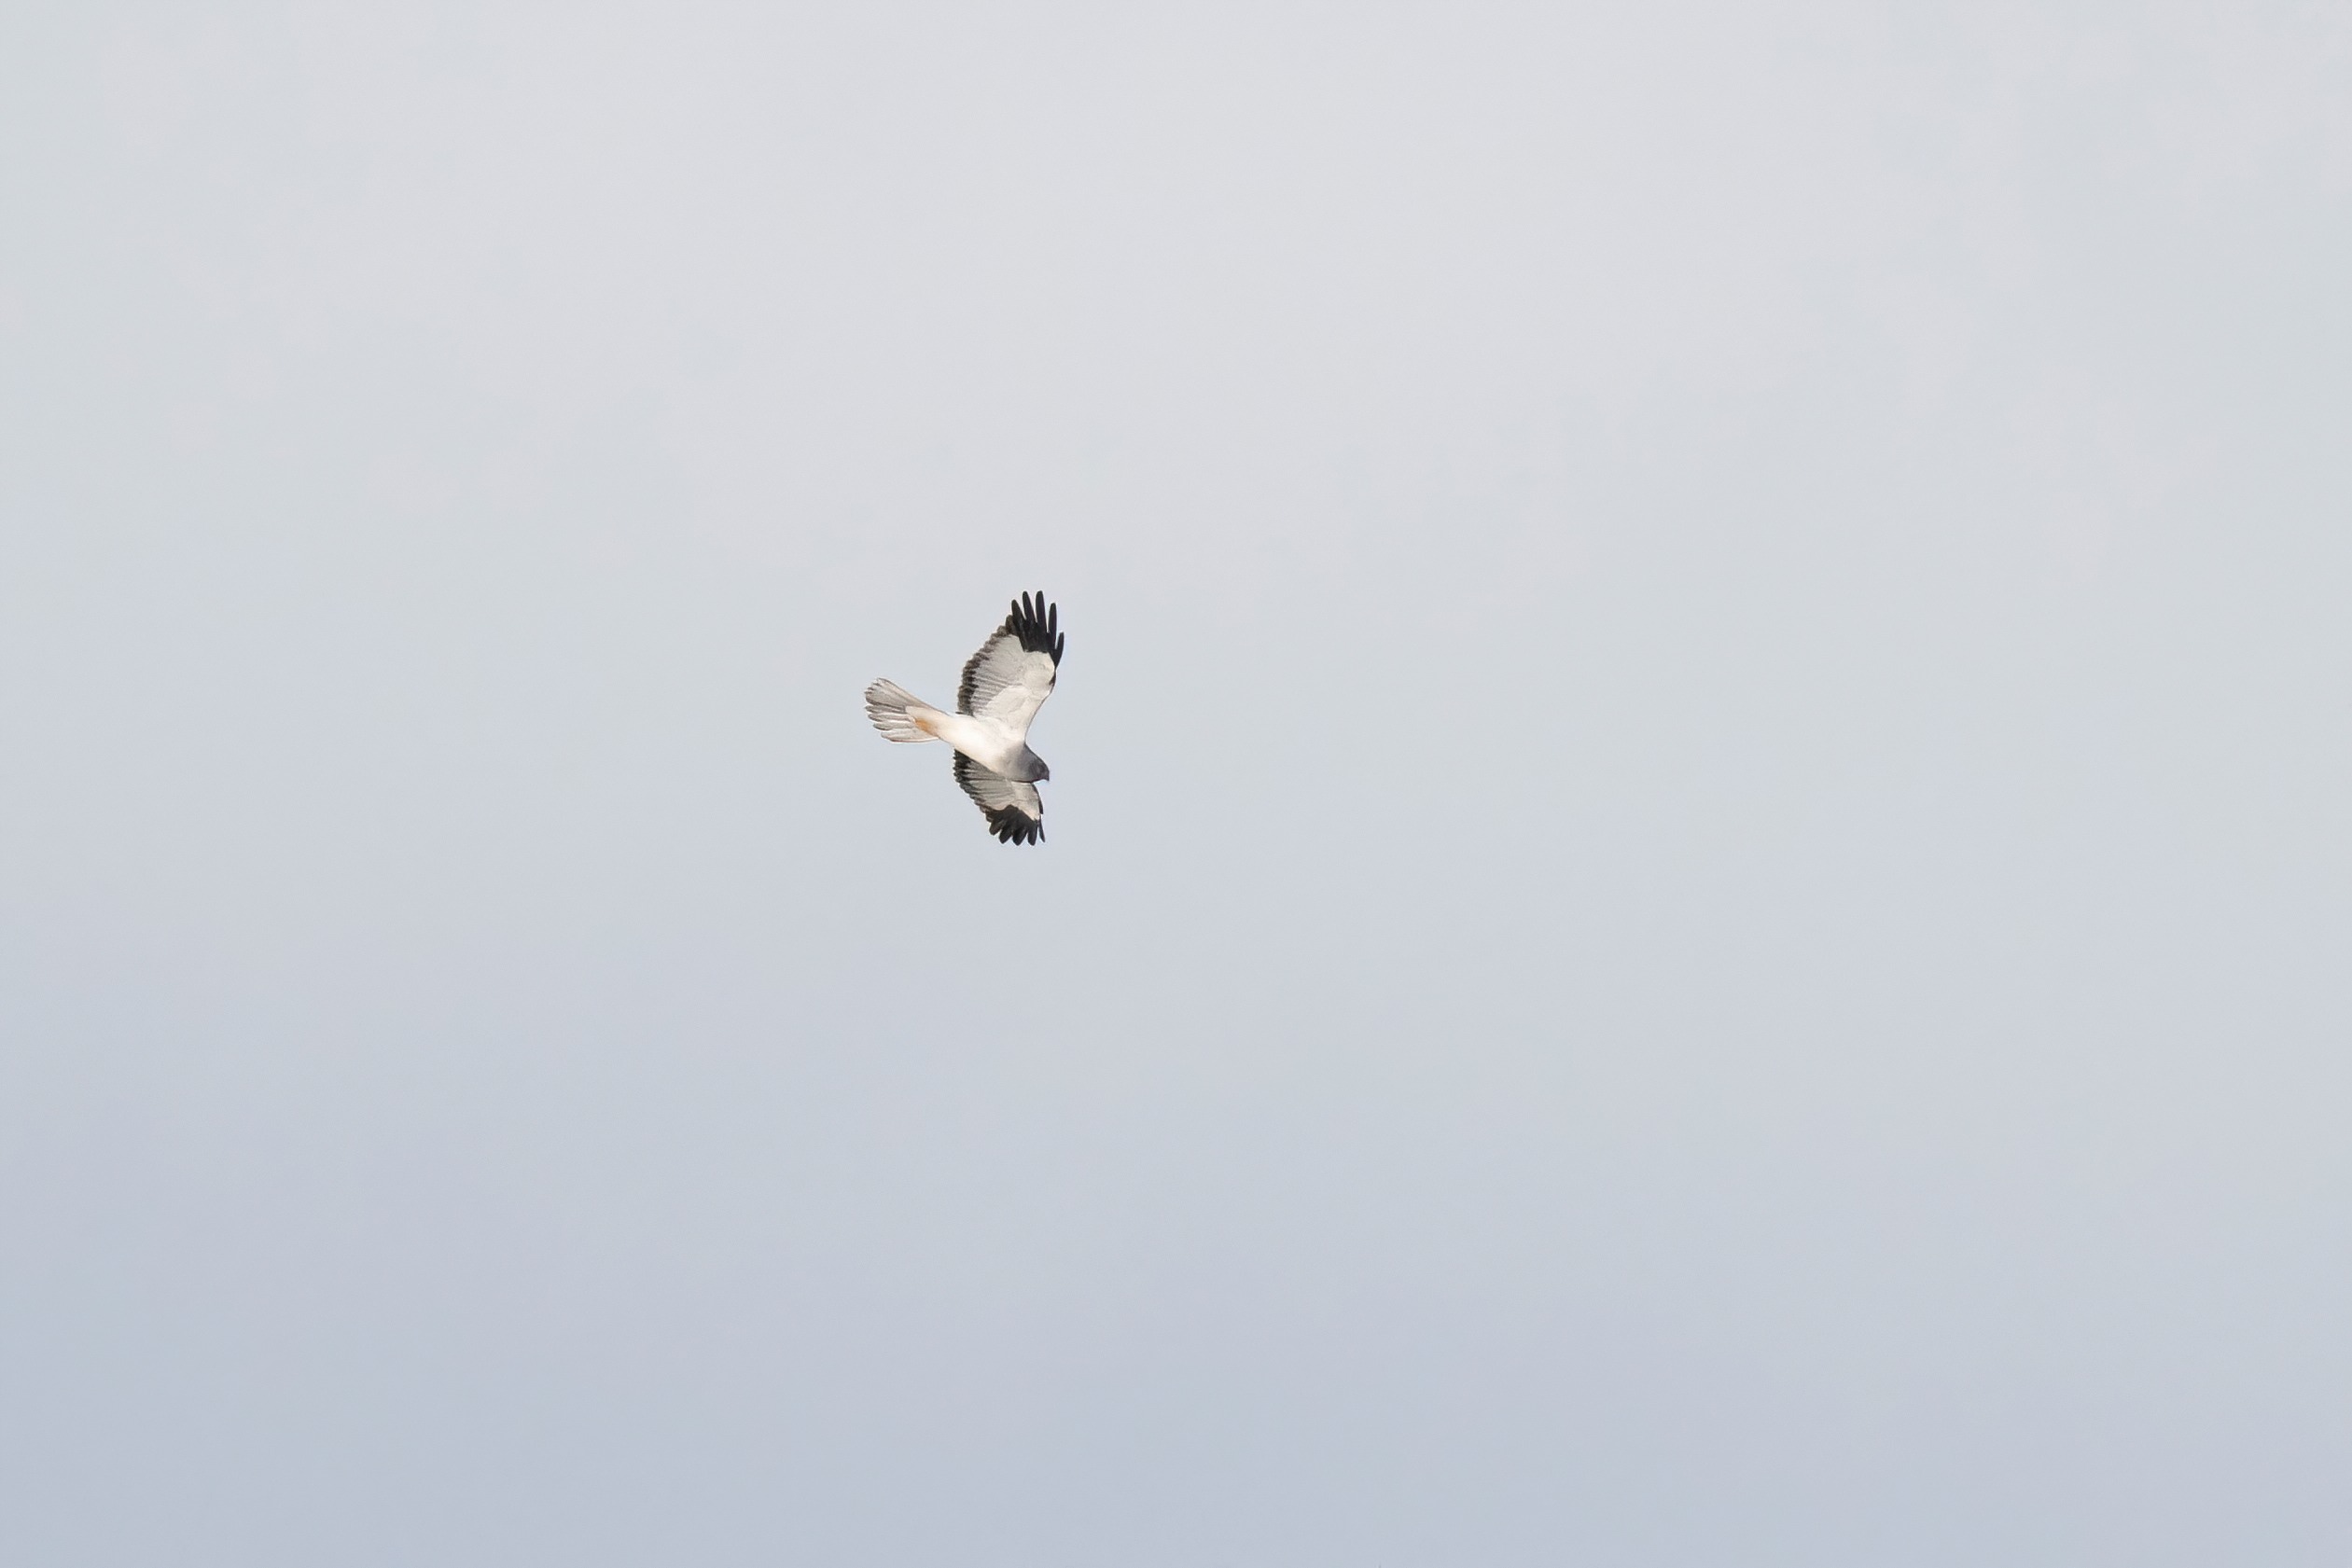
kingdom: Animalia
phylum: Chordata
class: Aves
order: Accipitriformes
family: Accipitridae
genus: Circus
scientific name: Circus cyaneus
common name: Blå kærhøg
